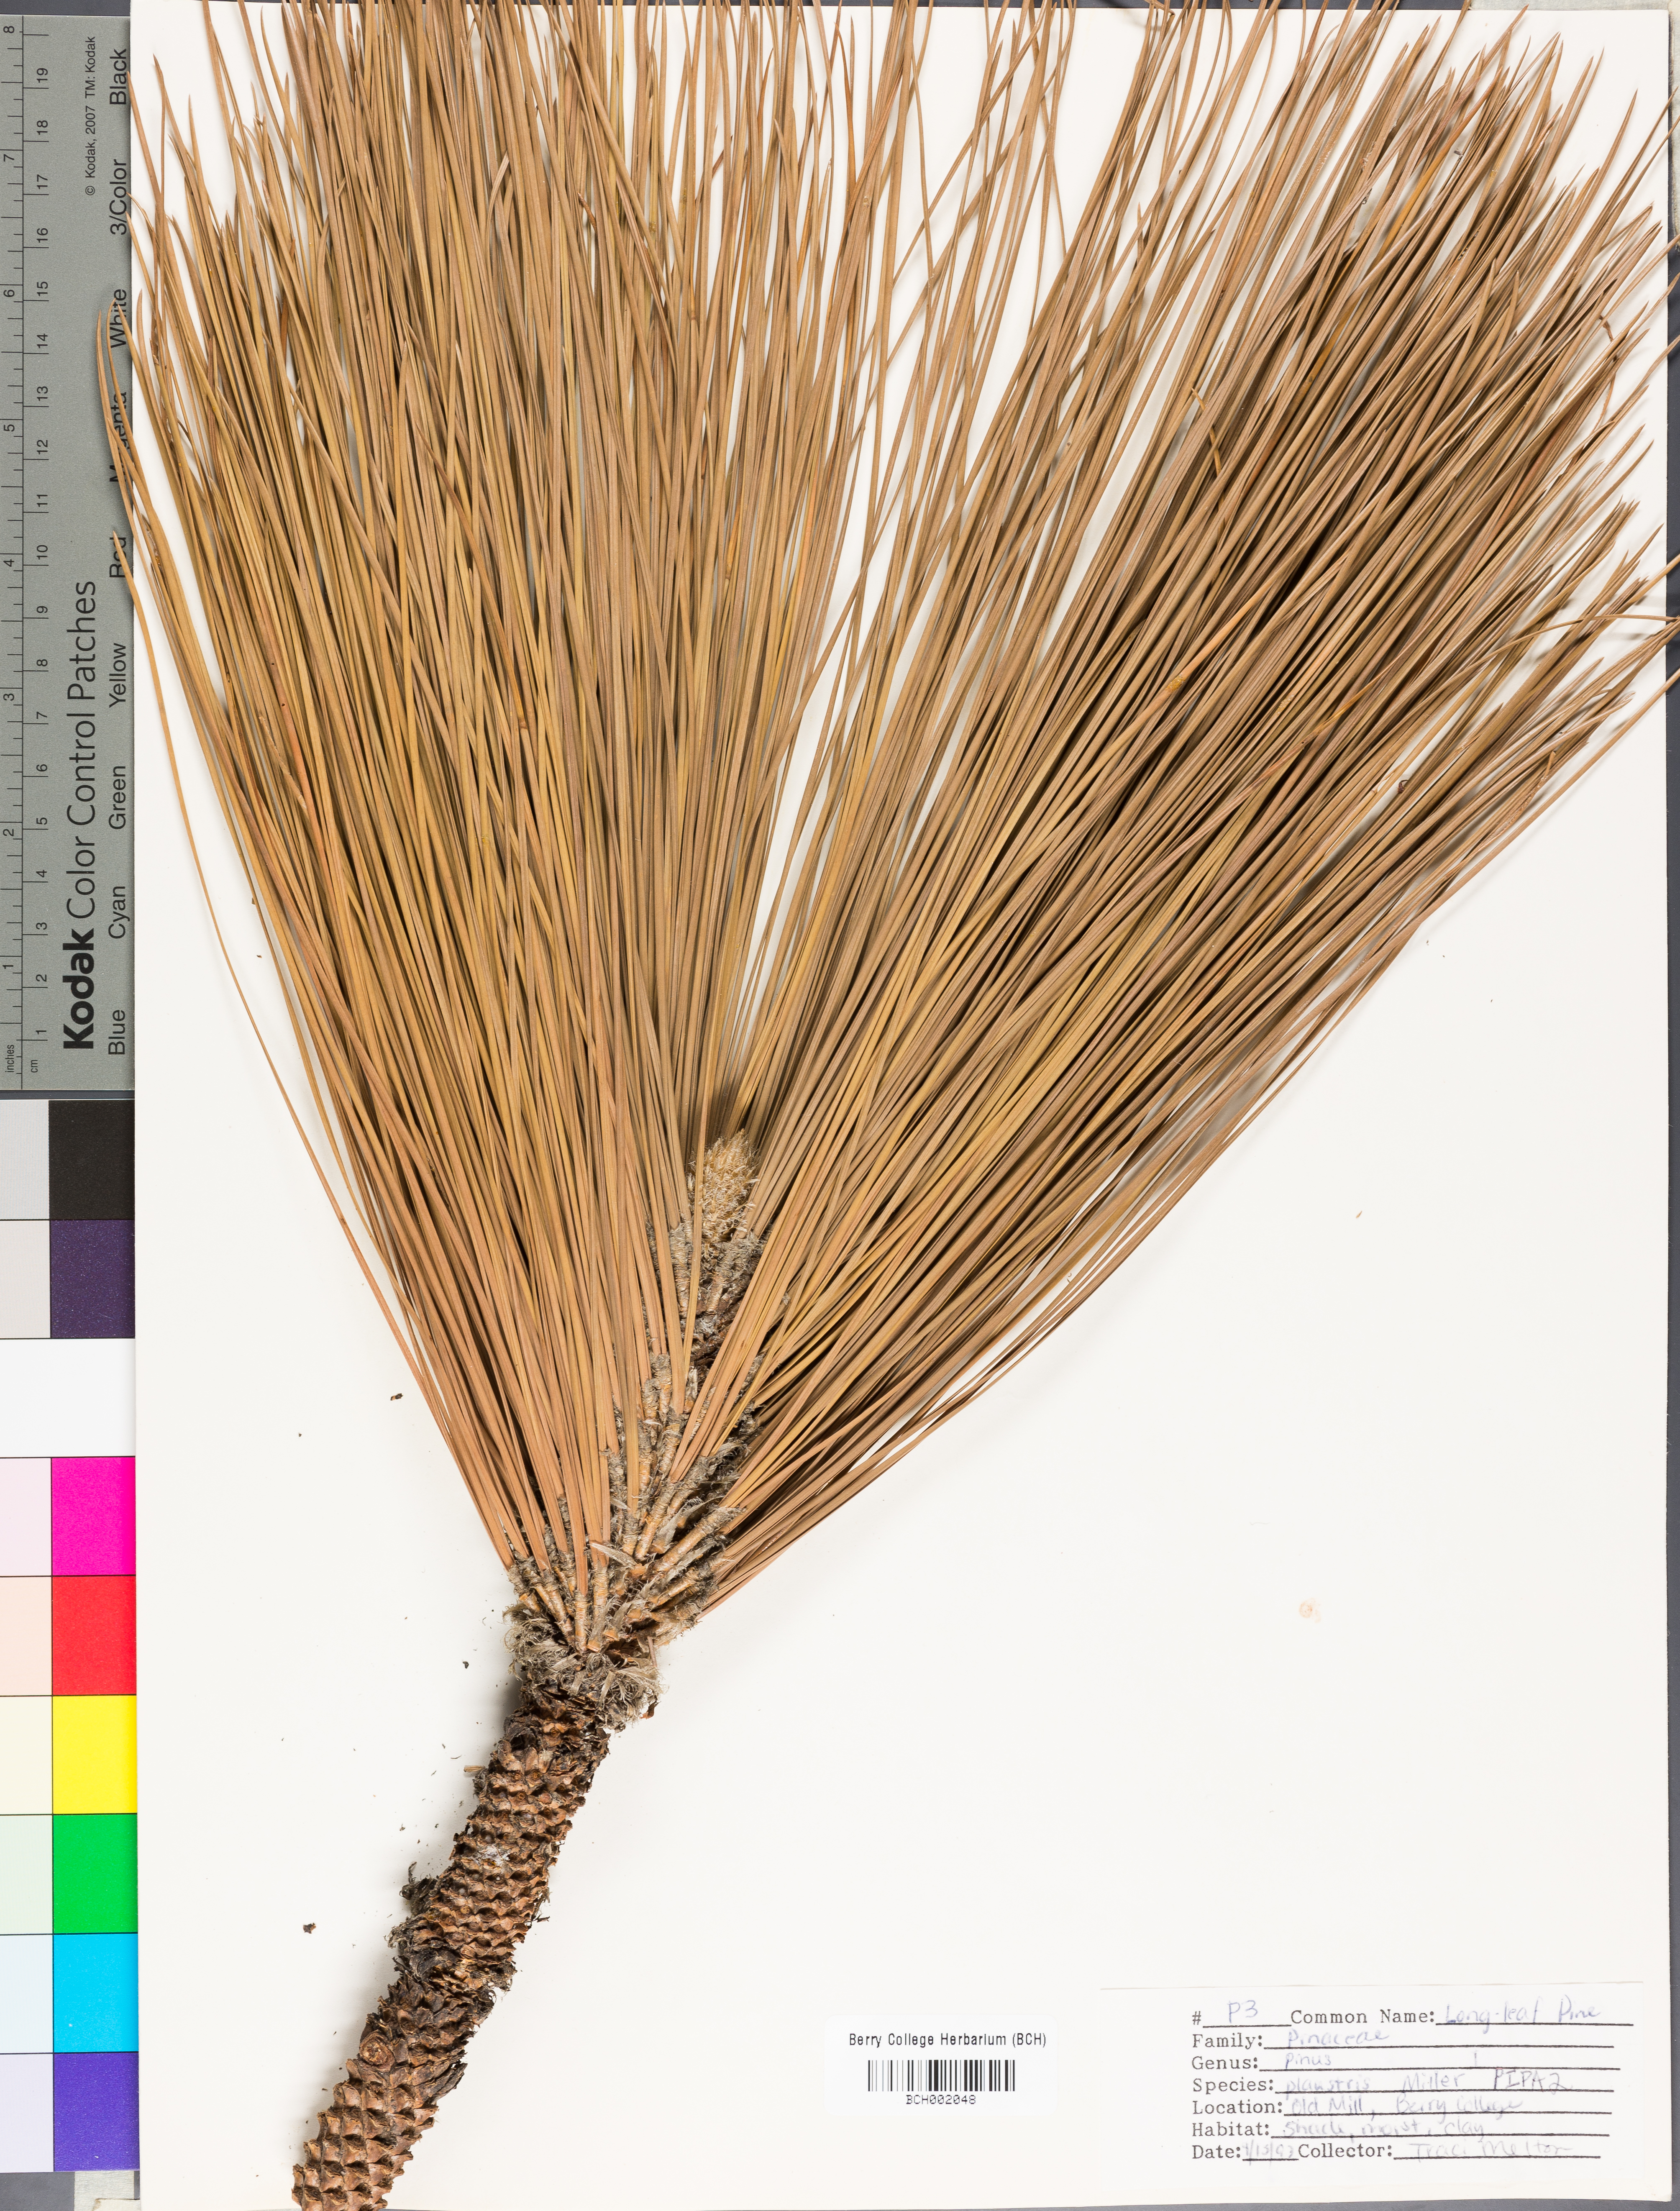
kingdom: Plantae
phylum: Tracheophyta
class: Pinopsida
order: Pinales
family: Pinaceae
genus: Pinus
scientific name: Pinus palustris
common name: Longleaf pine
